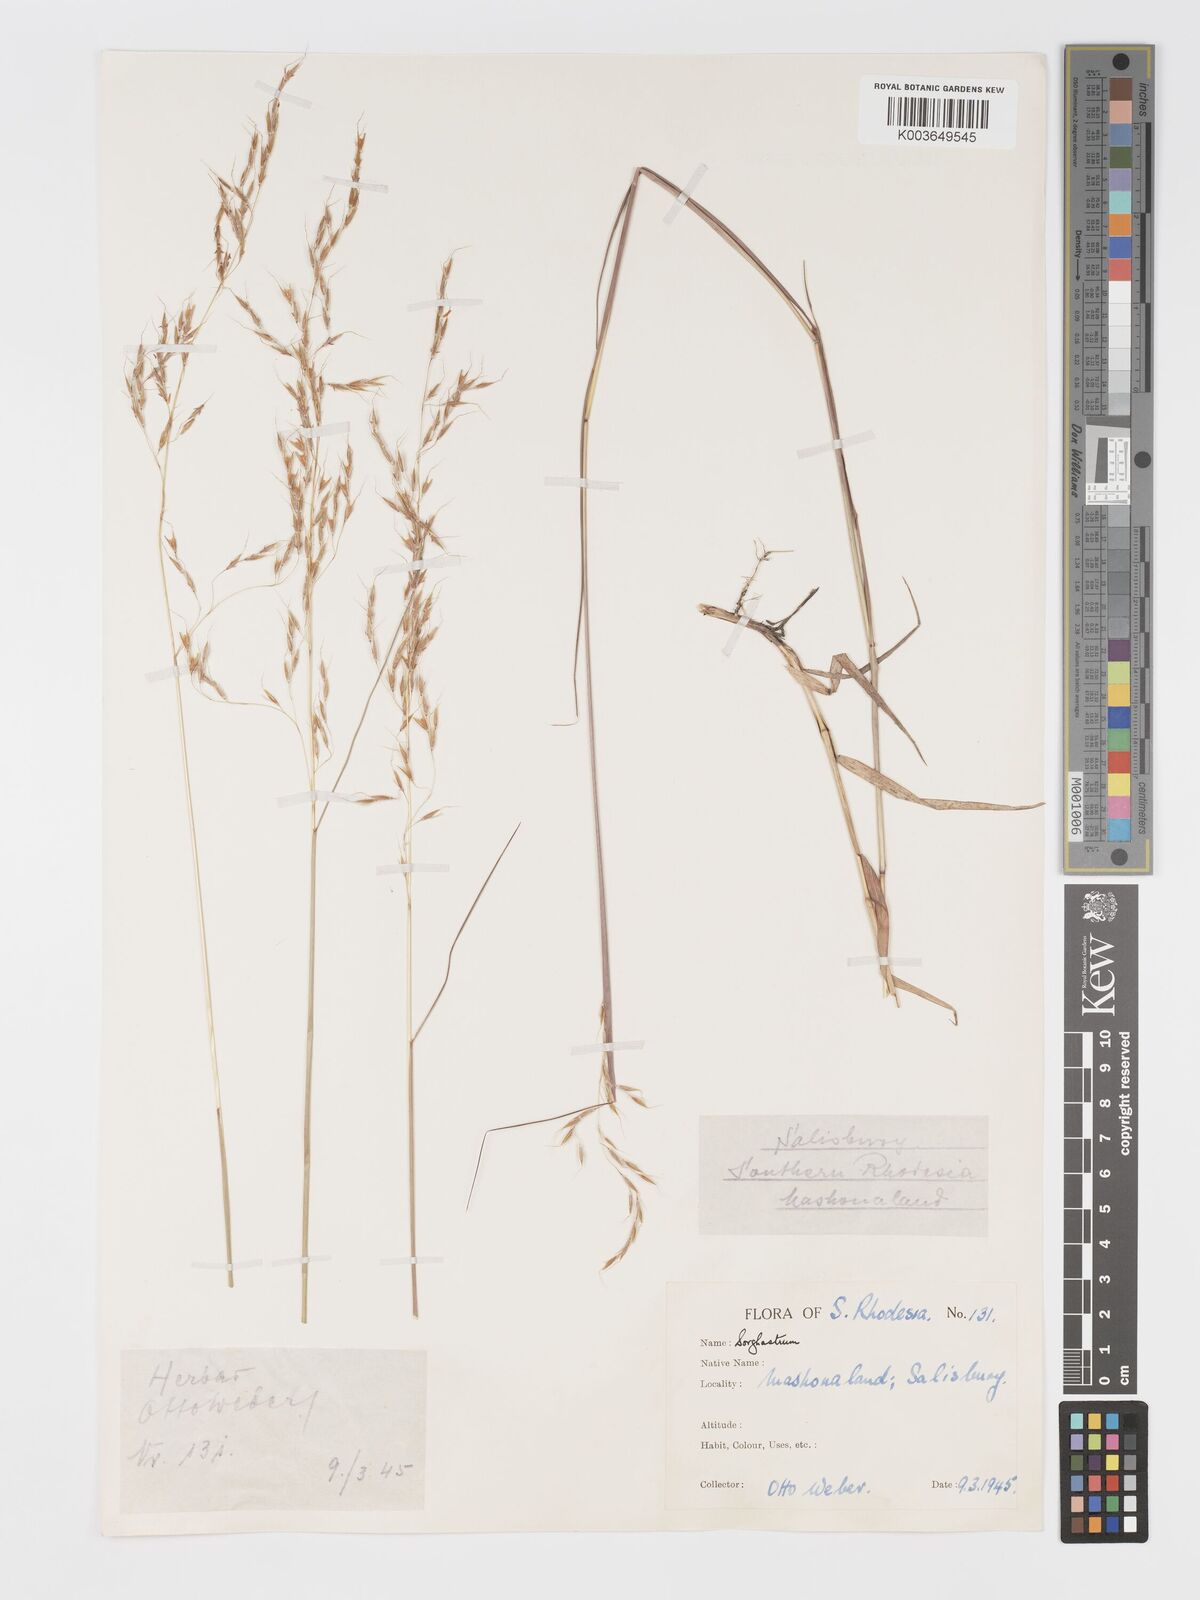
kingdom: Plantae
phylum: Tracheophyta
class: Liliopsida
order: Poales
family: Poaceae
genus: Sorghastrum
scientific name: Sorghastrum nudipes
